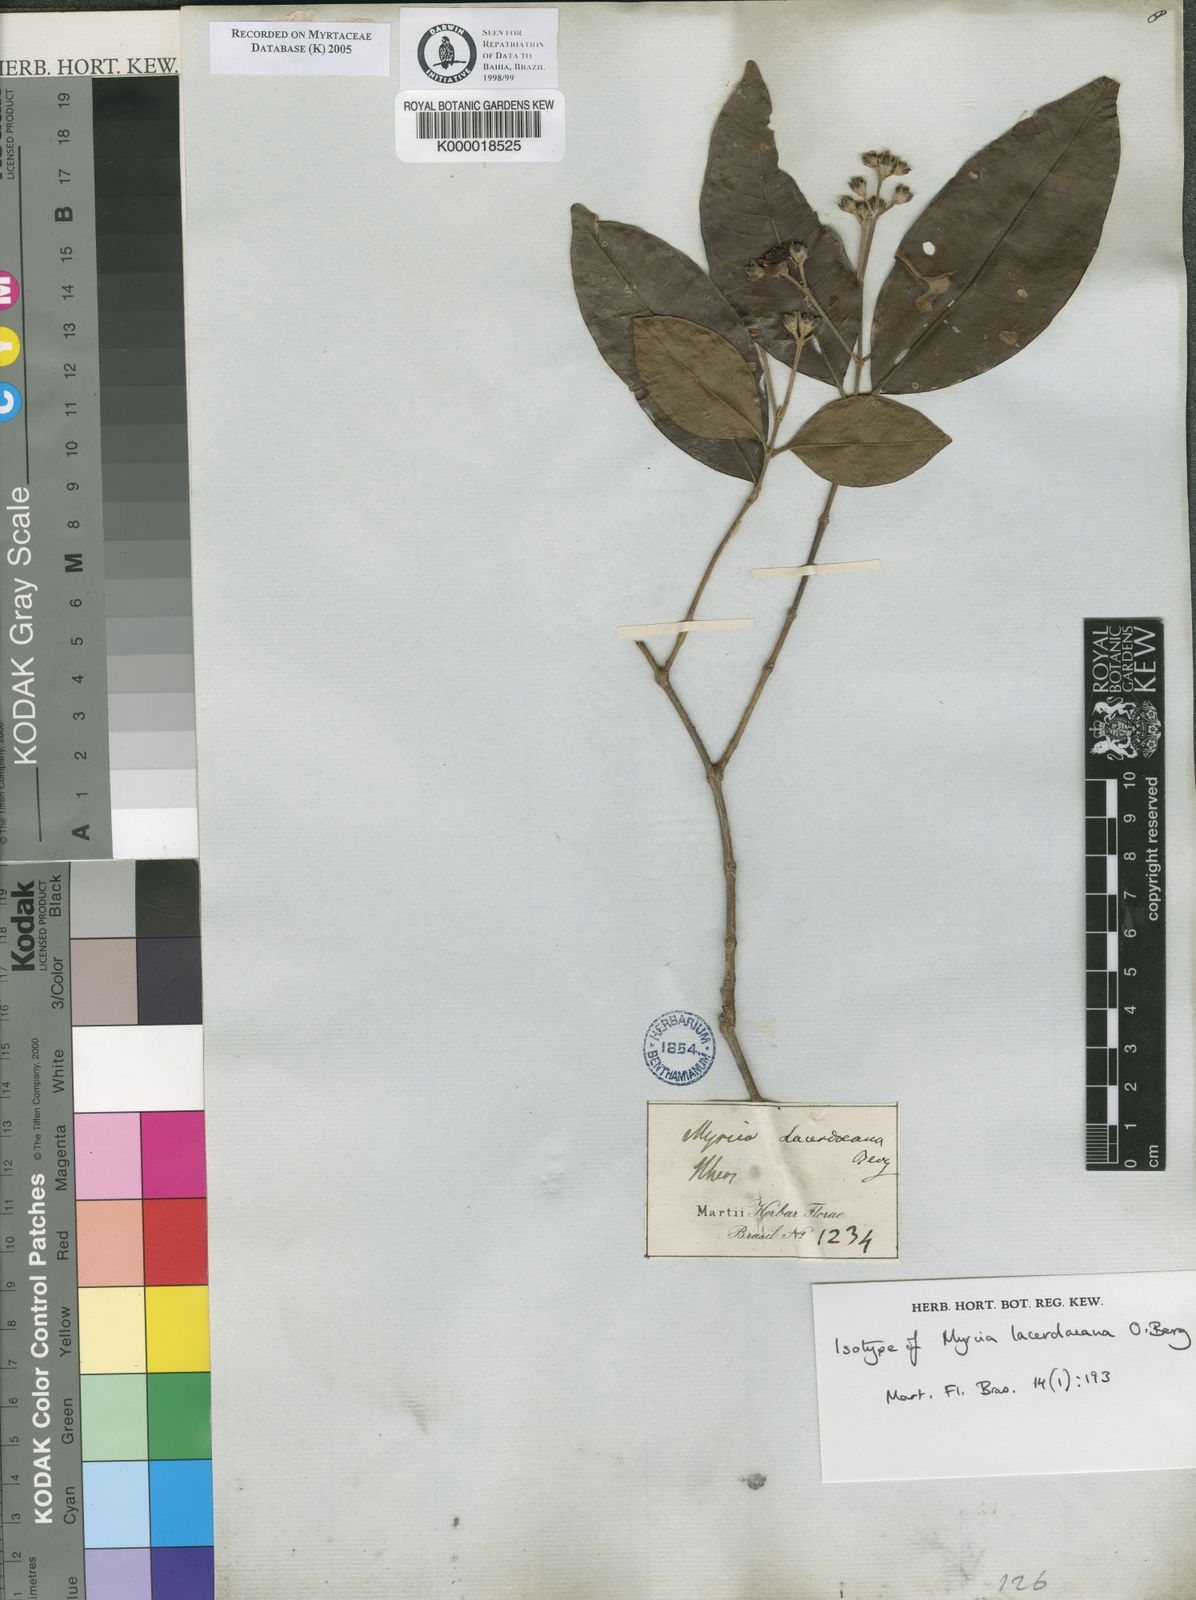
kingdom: Plantae
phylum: Tracheophyta
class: Magnoliopsida
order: Myrtales
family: Myrtaceae
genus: Myrcia
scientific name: Myrcia lacerdaeana
